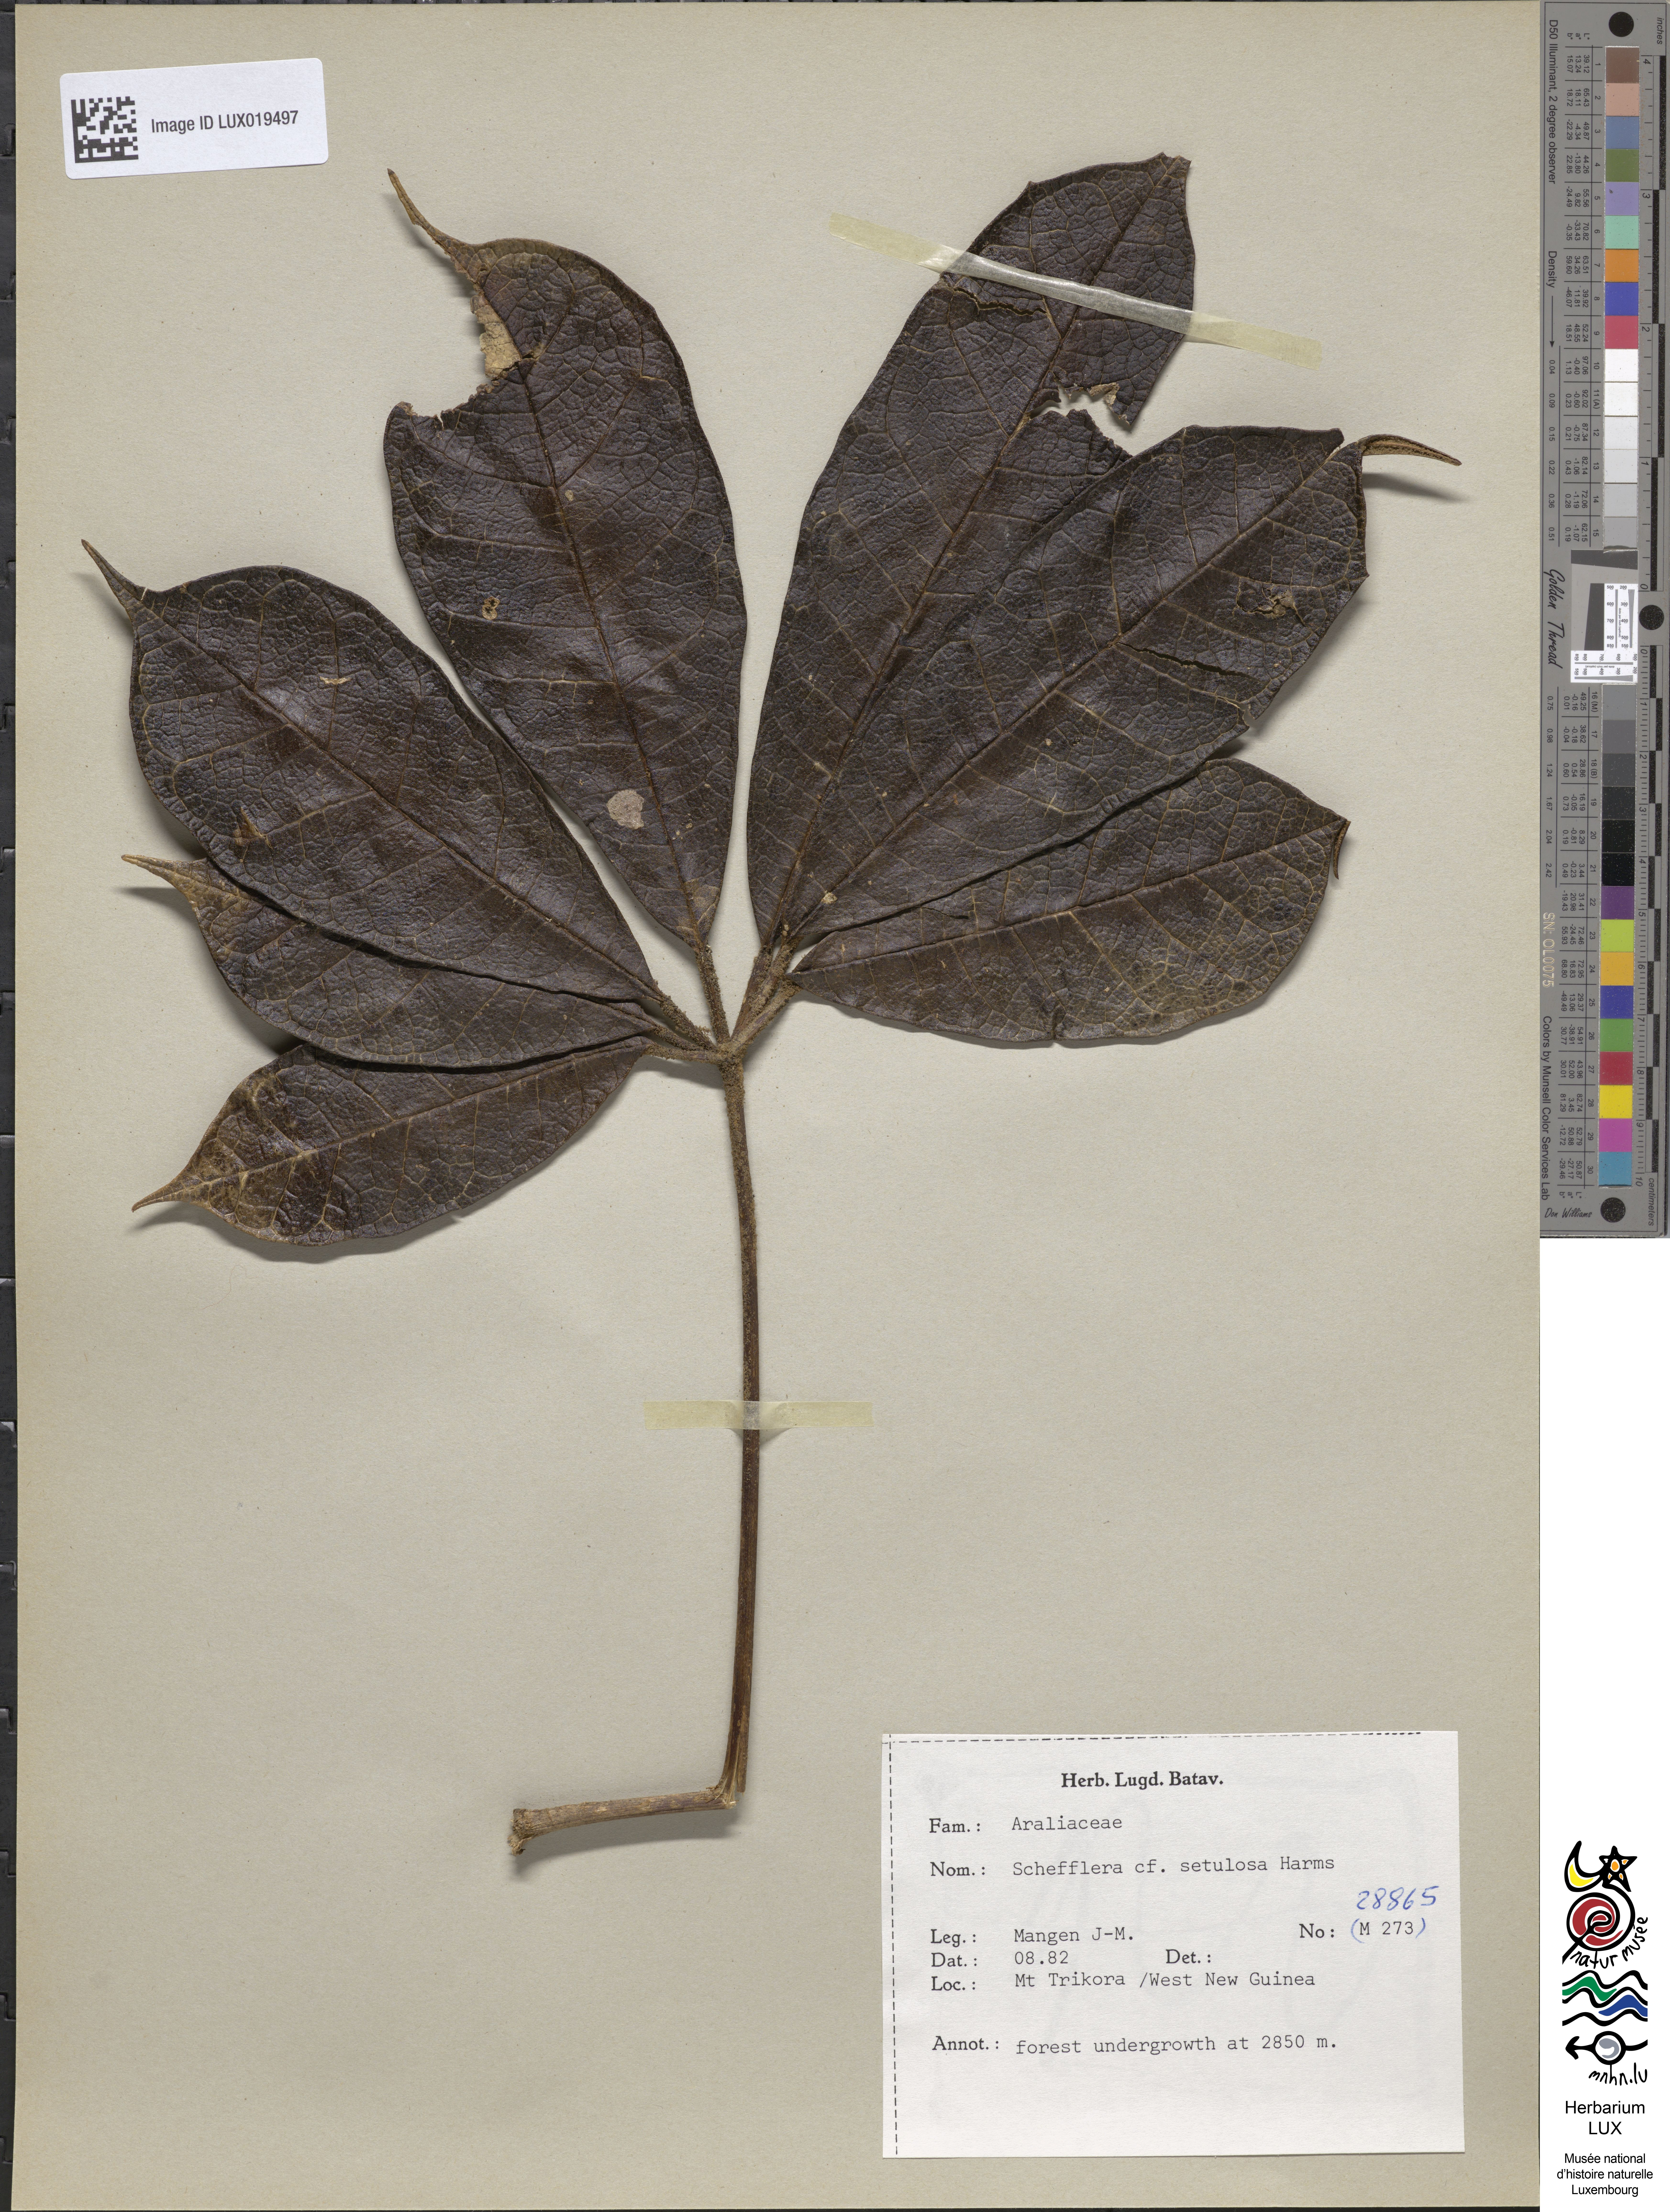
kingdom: Plantae
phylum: Tracheophyta
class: Magnoliopsida
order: Apiales
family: Araliaceae
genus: Heptapleurum
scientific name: Heptapleurum setulosum
